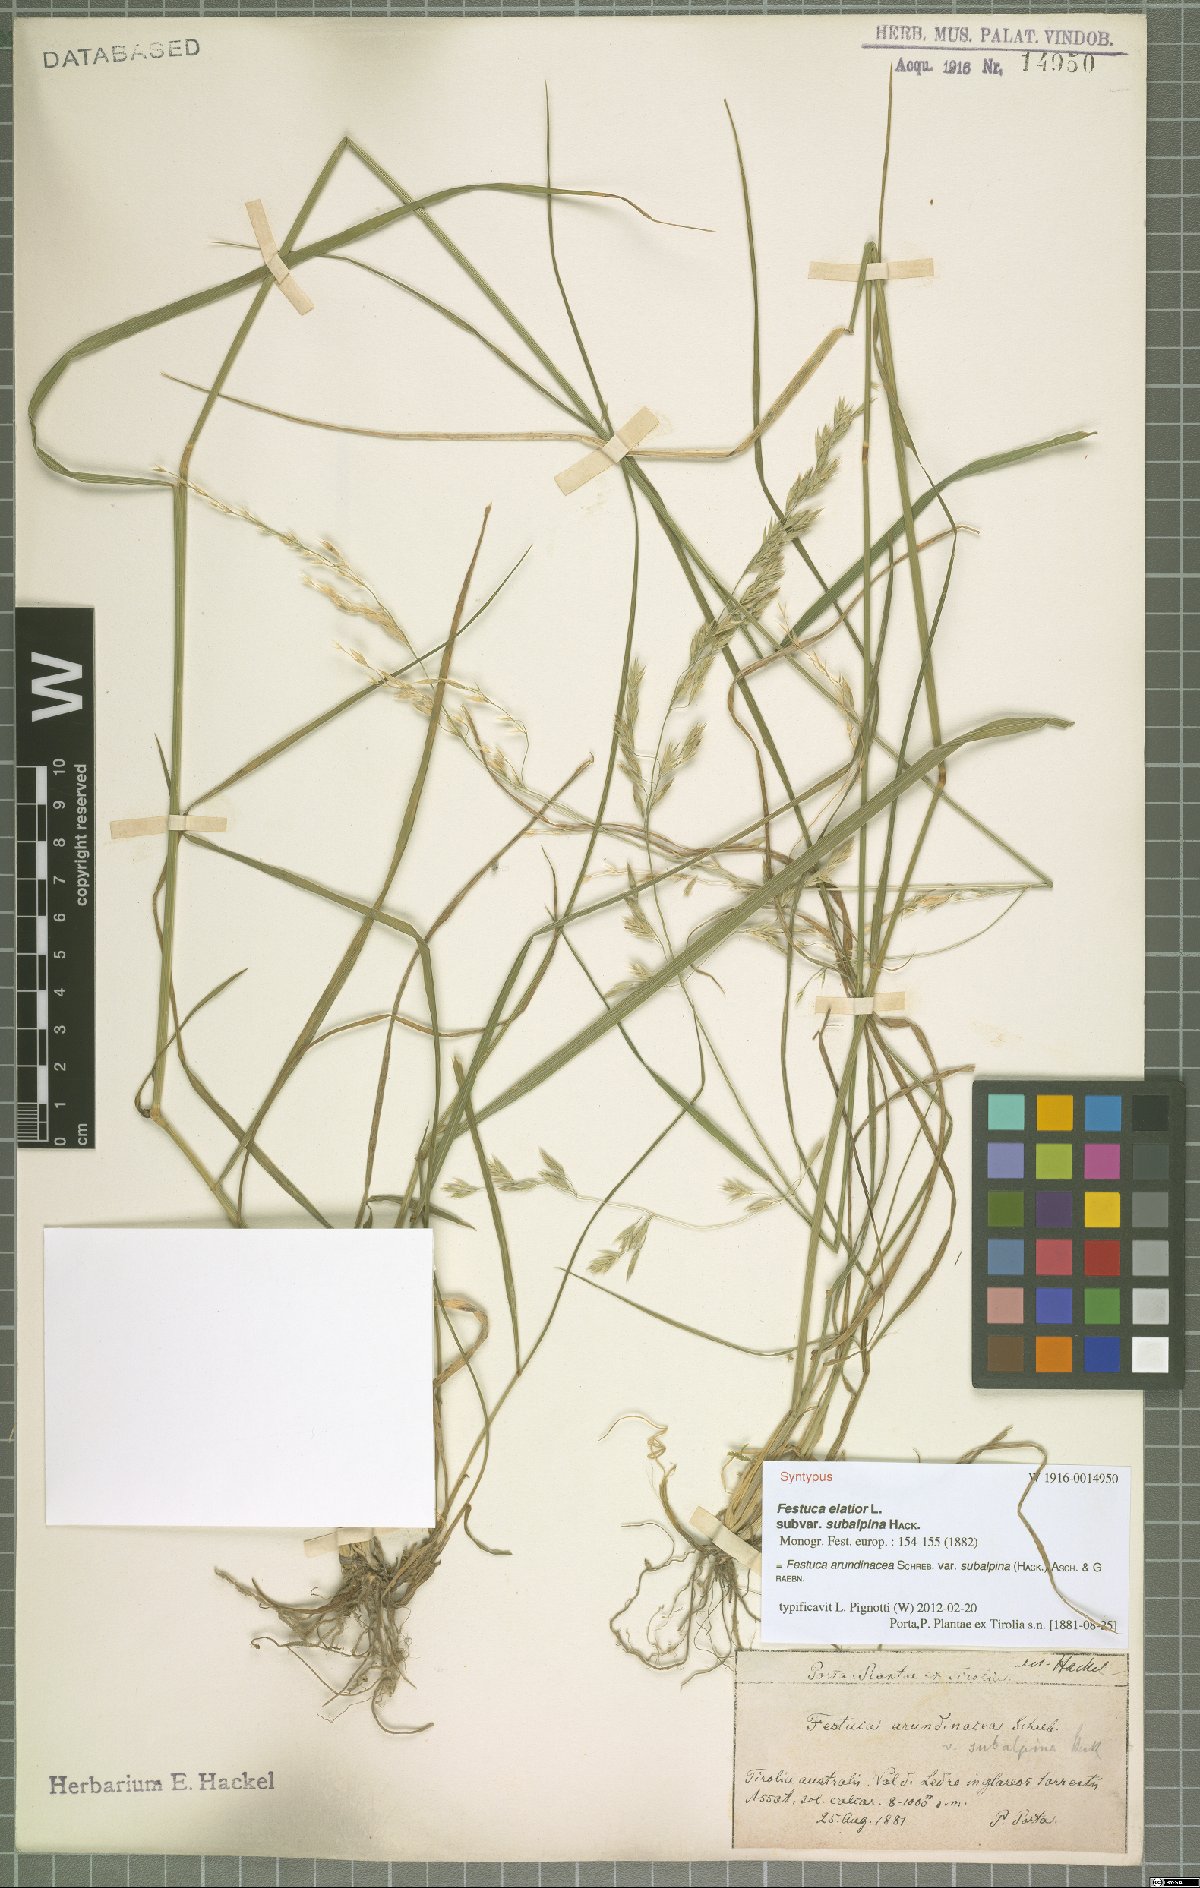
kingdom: Plantae
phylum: Tracheophyta
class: Liliopsida
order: Poales
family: Poaceae
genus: Lolium
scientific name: Lolium arundinaceum
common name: Reed fescue
